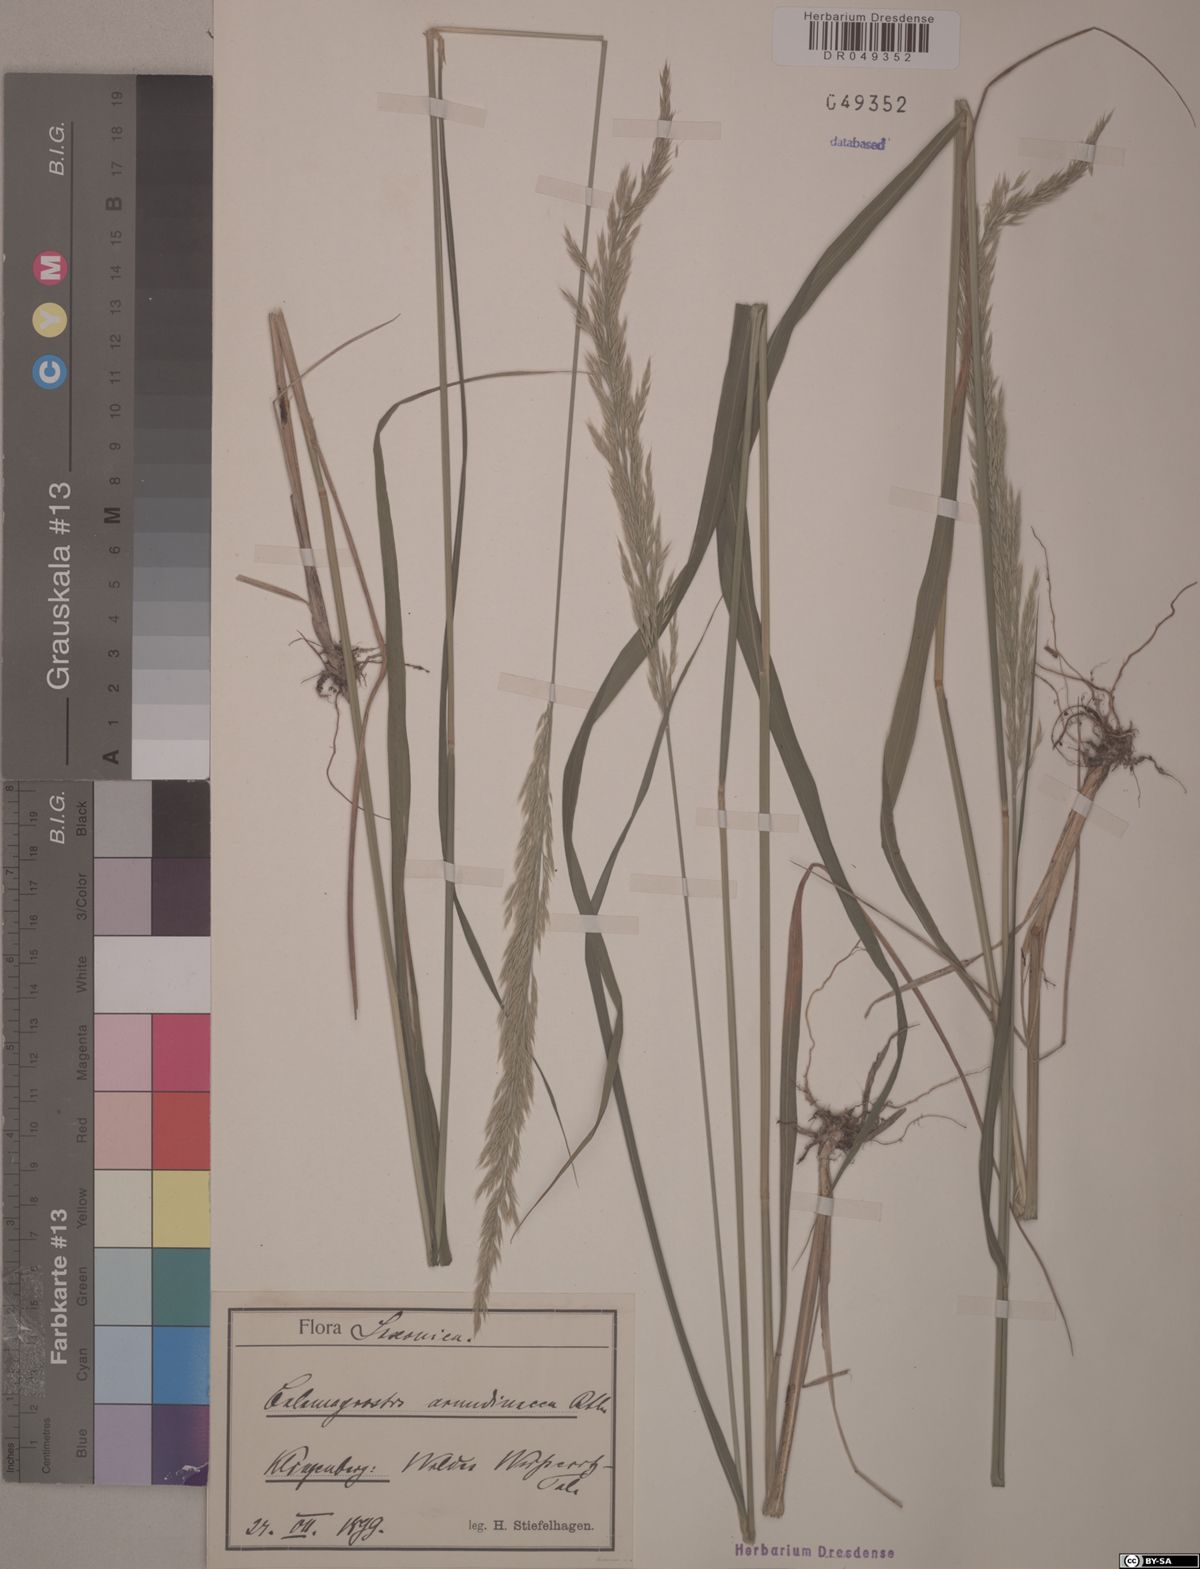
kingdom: Plantae
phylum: Tracheophyta
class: Liliopsida
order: Poales
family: Poaceae
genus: Calamagrostis
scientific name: Calamagrostis arundinacea
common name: Metskastik
